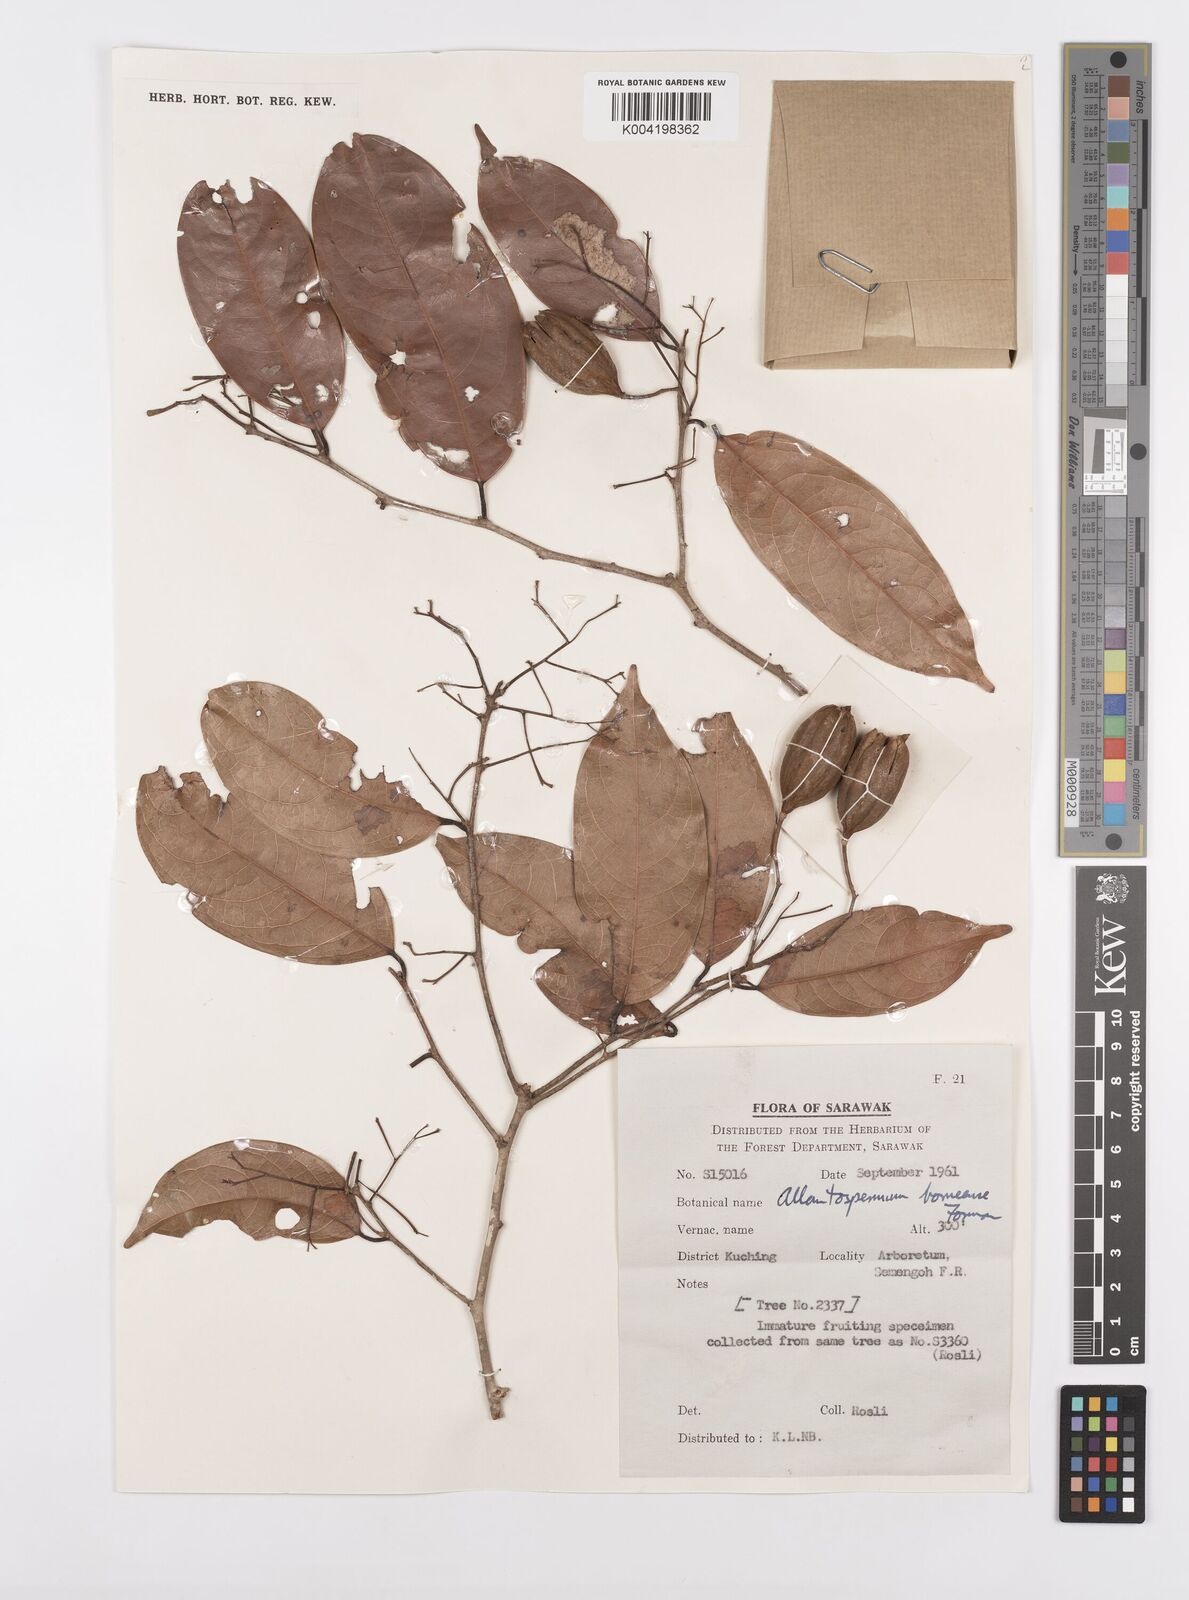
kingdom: Plantae
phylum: Tracheophyta
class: Magnoliopsida
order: Malpighiales
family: Ixonanthaceae
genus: Allantospermum
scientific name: Allantospermum borneense
